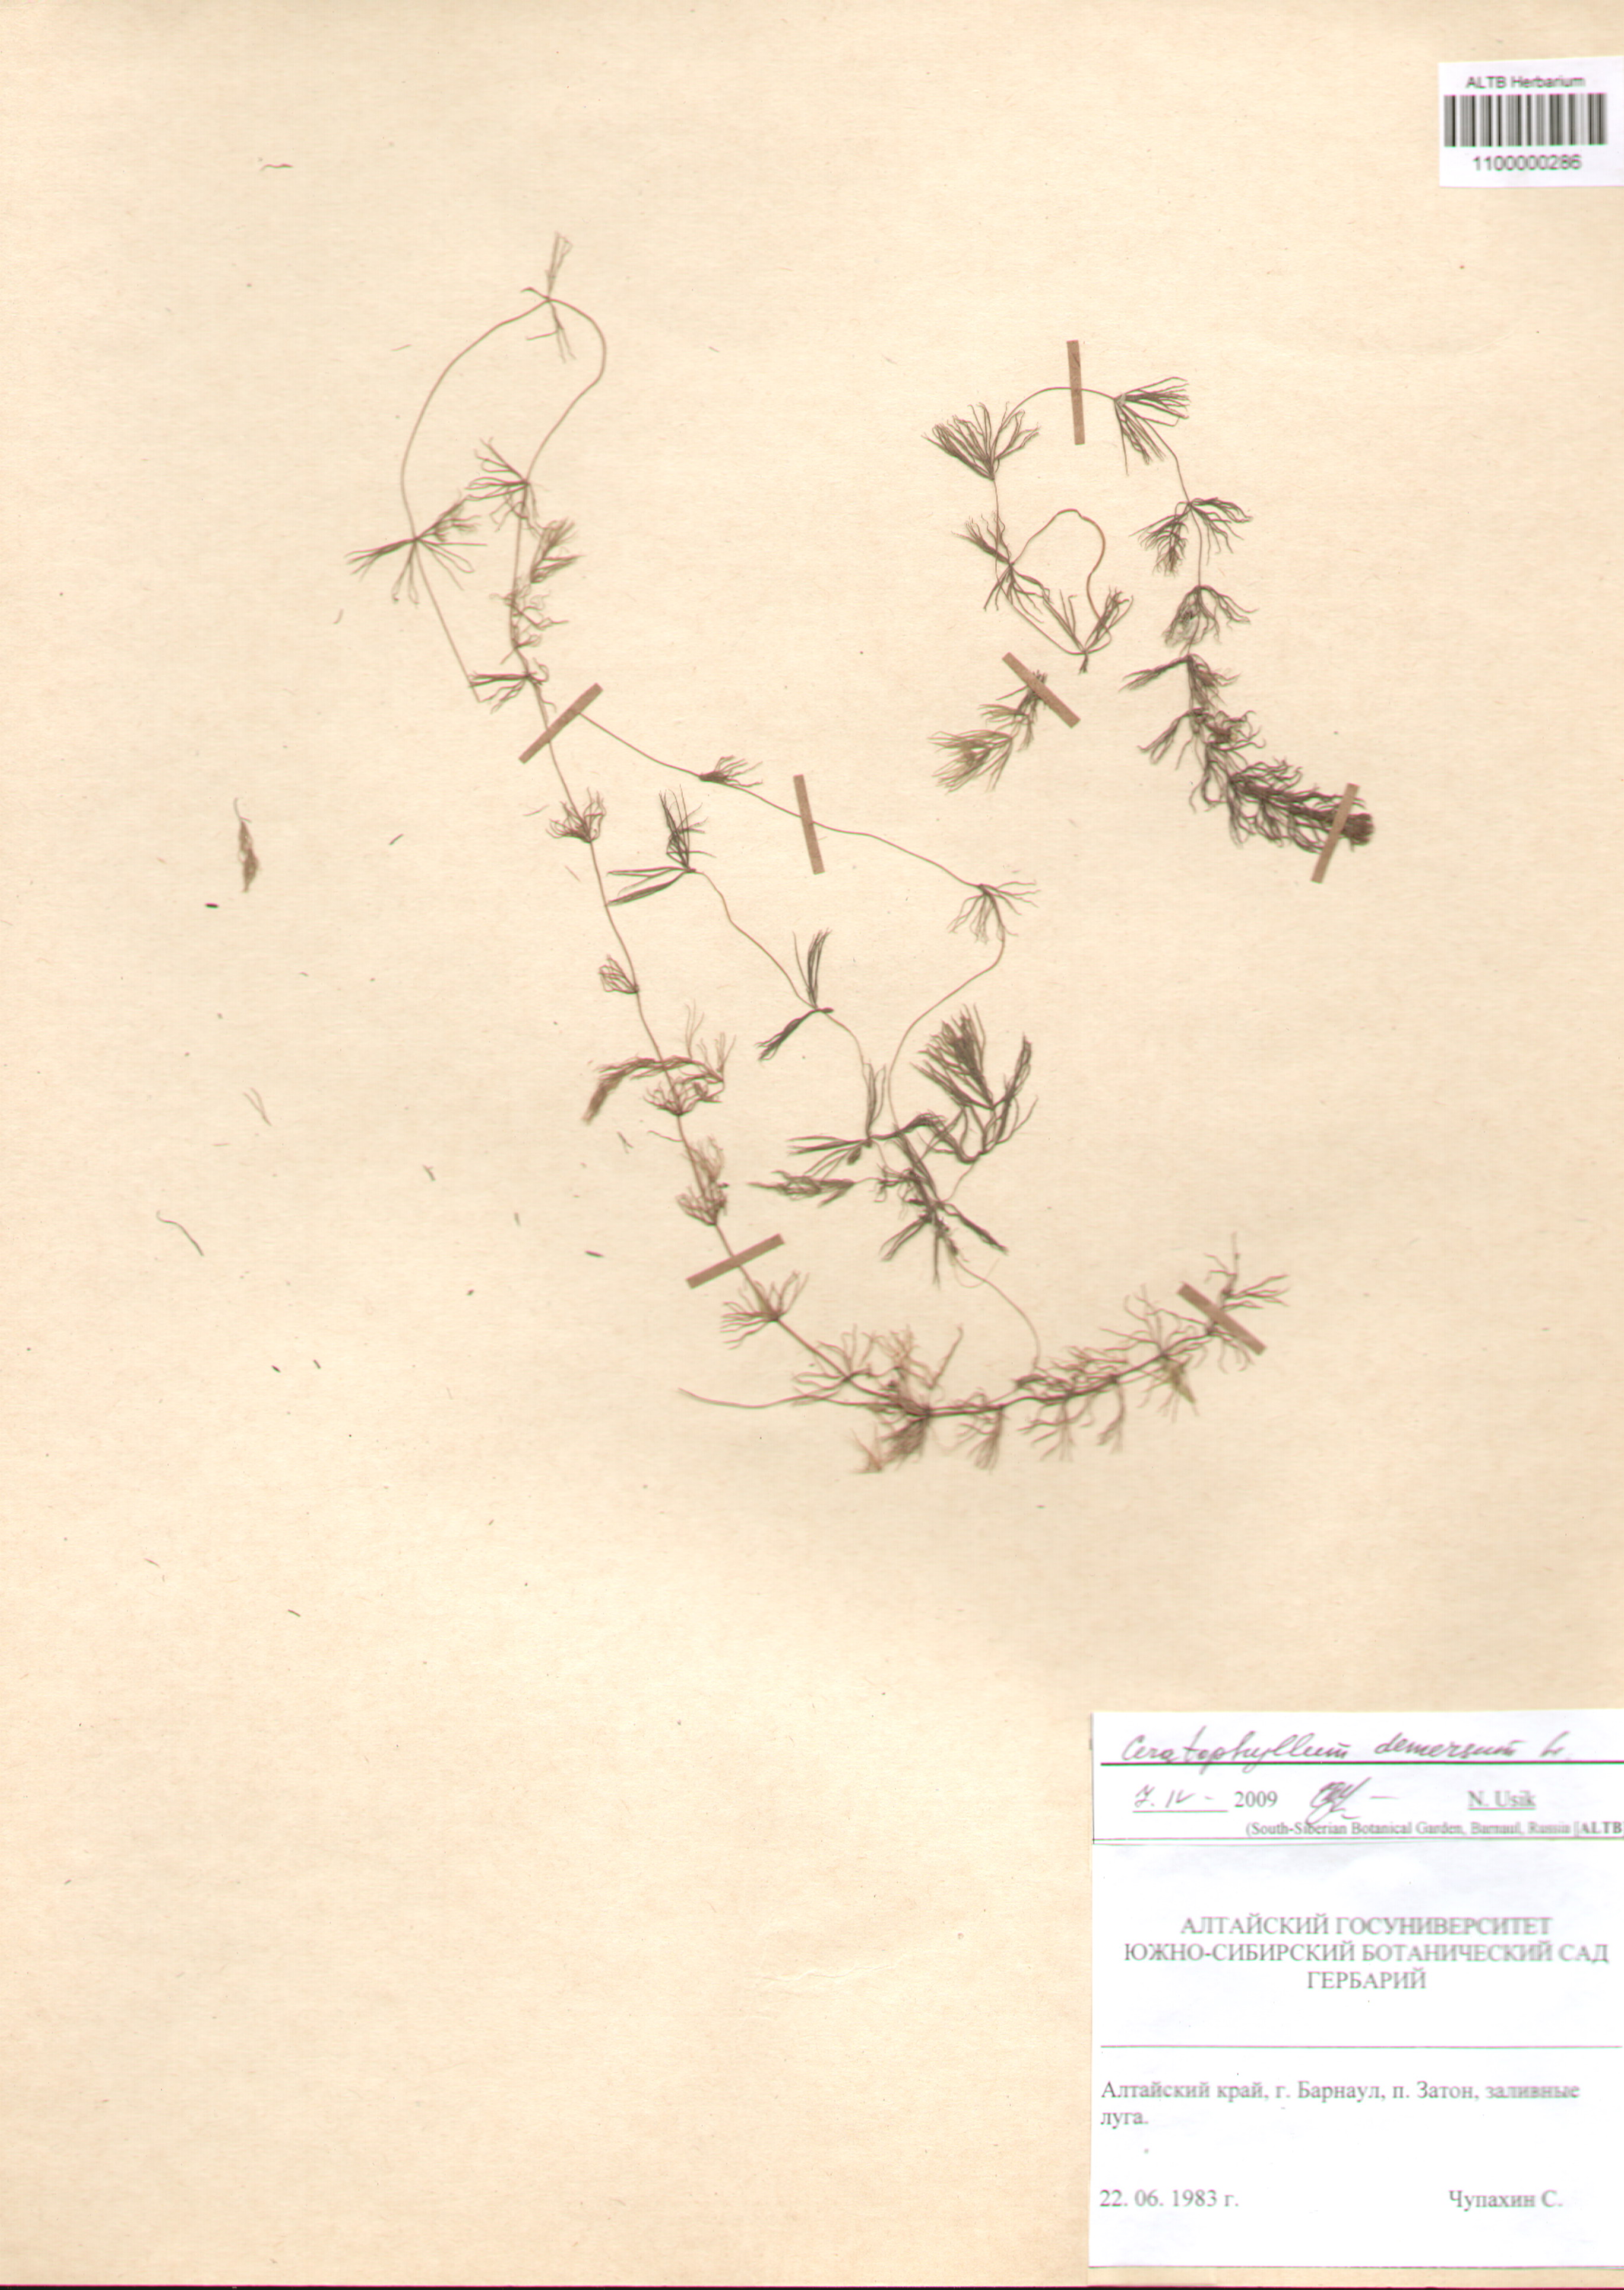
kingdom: Plantae
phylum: Tracheophyta
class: Magnoliopsida
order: Ceratophyllales
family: Ceratophyllaceae
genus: Ceratophyllum
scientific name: Ceratophyllum demersum
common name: Rigid hornwort
